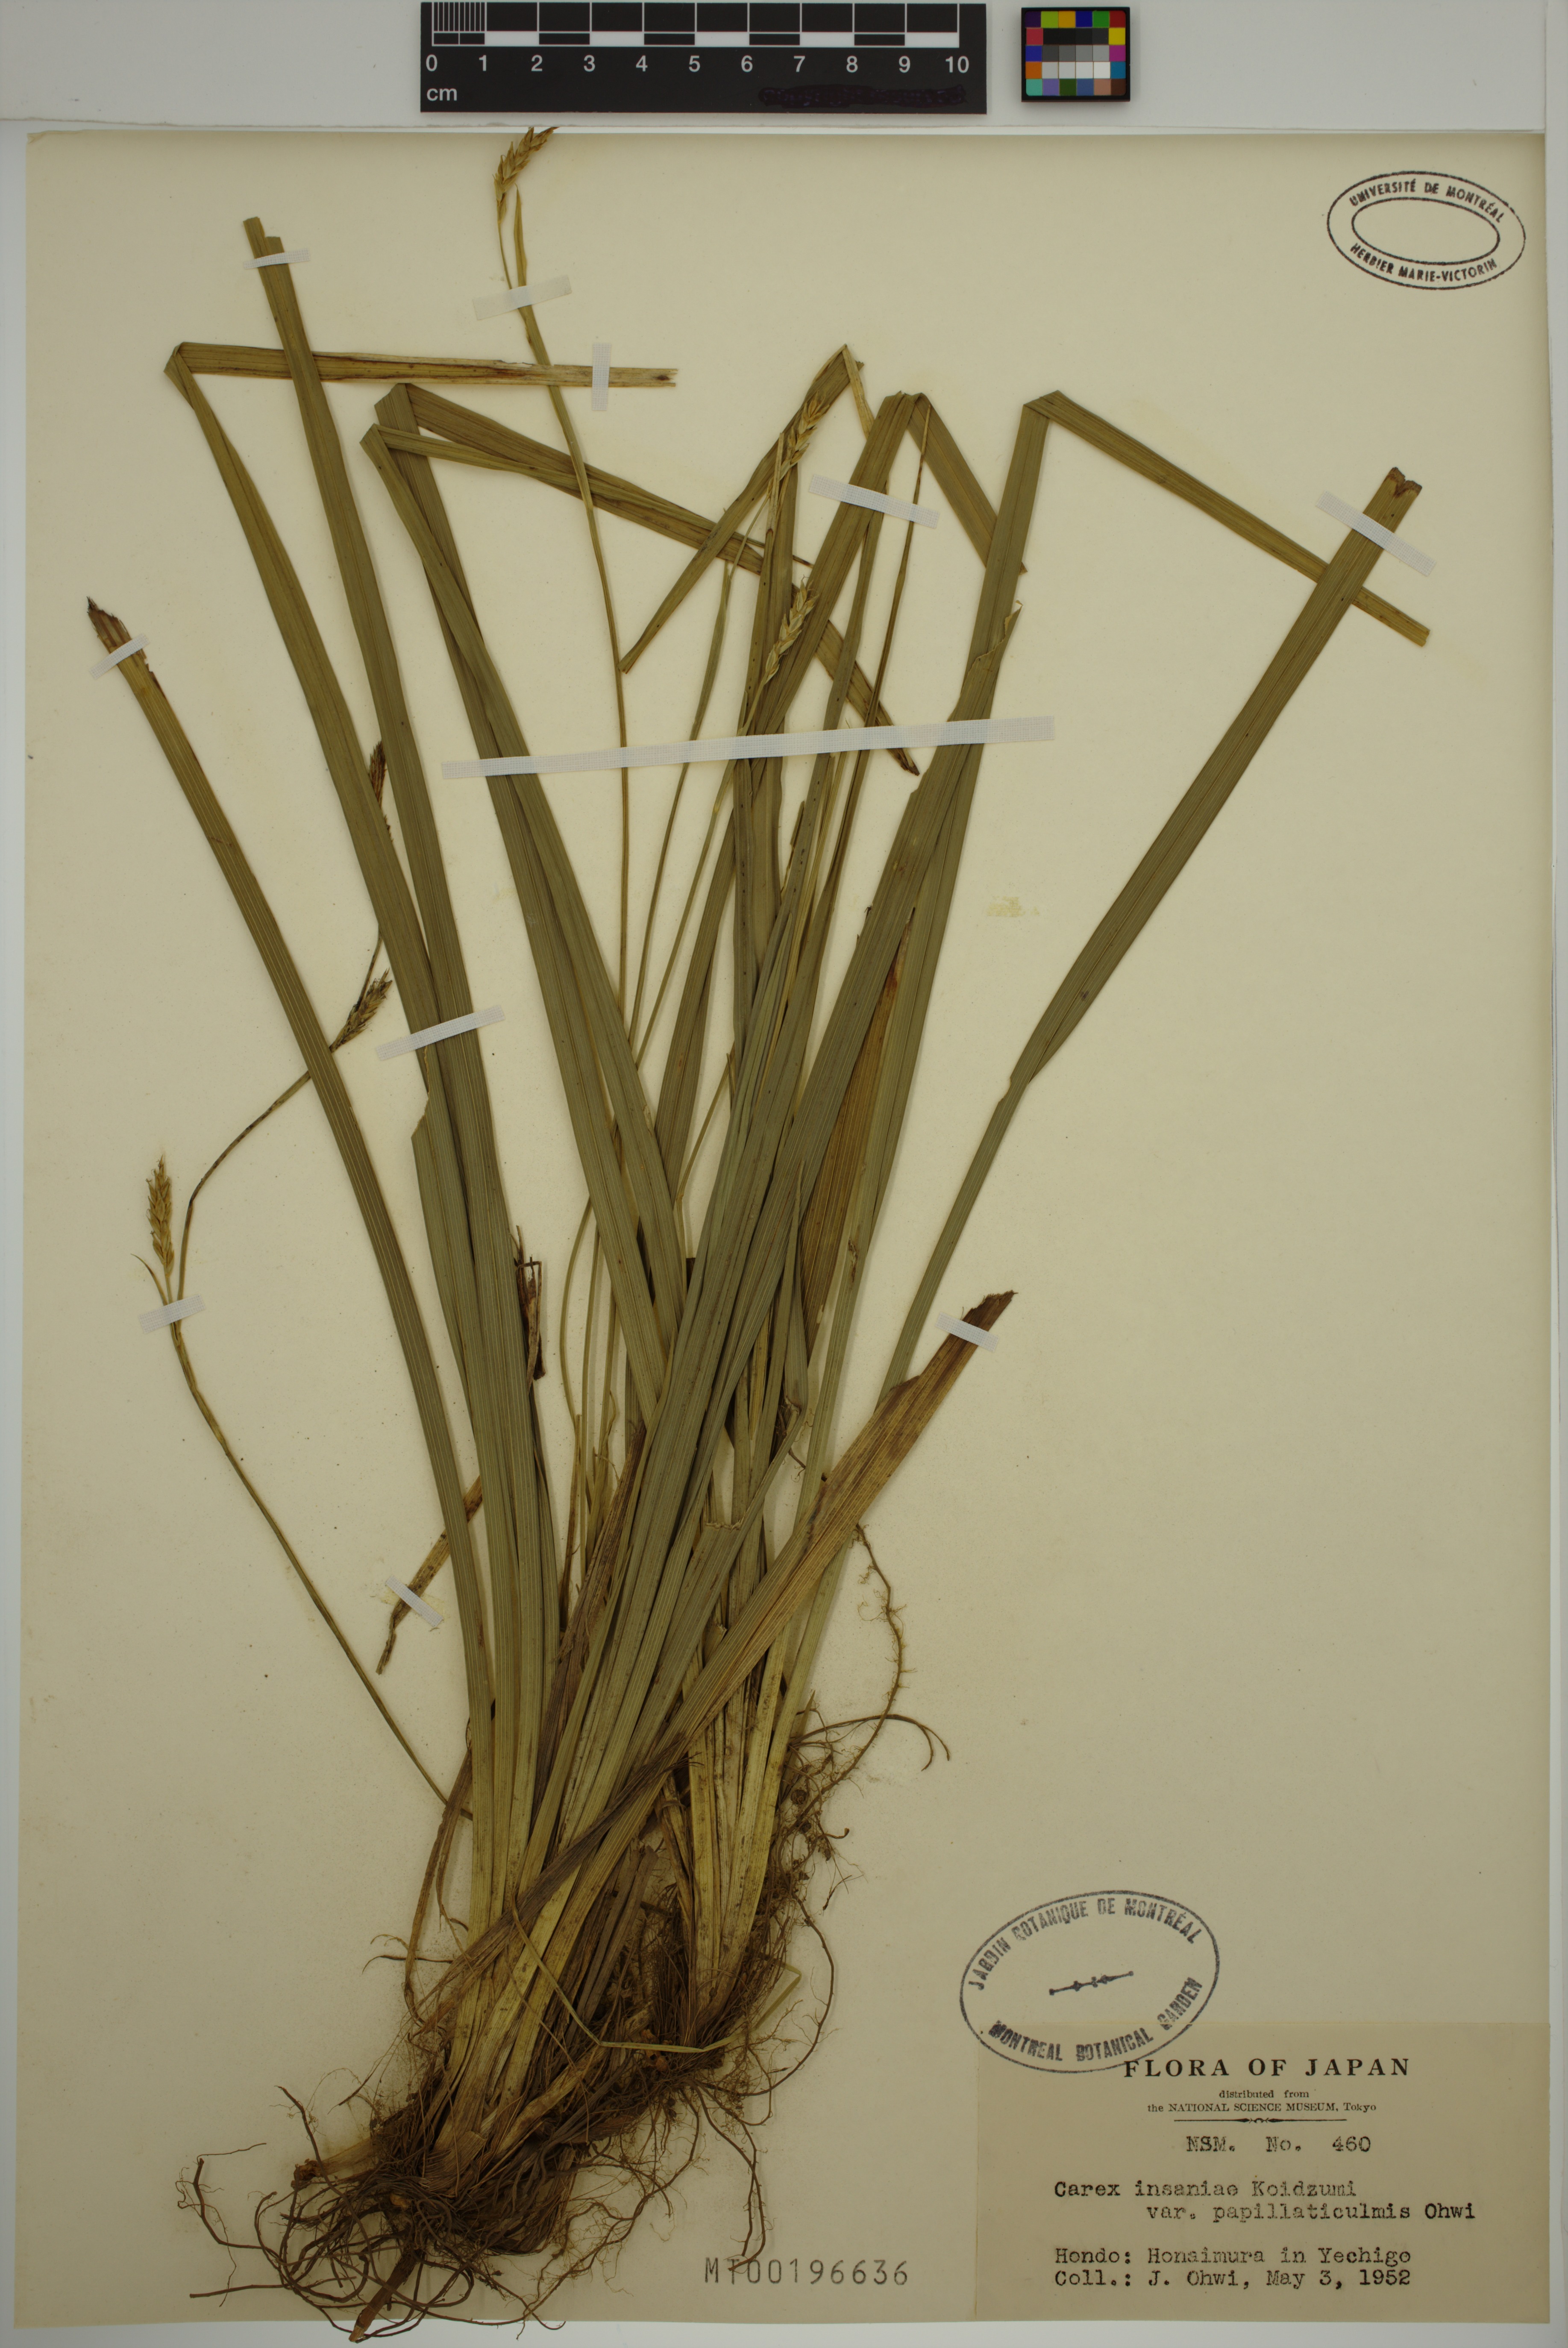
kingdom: Plantae
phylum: Tracheophyta
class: Liliopsida
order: Poales
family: Cyperaceae
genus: Carex
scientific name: Carex insaniae
